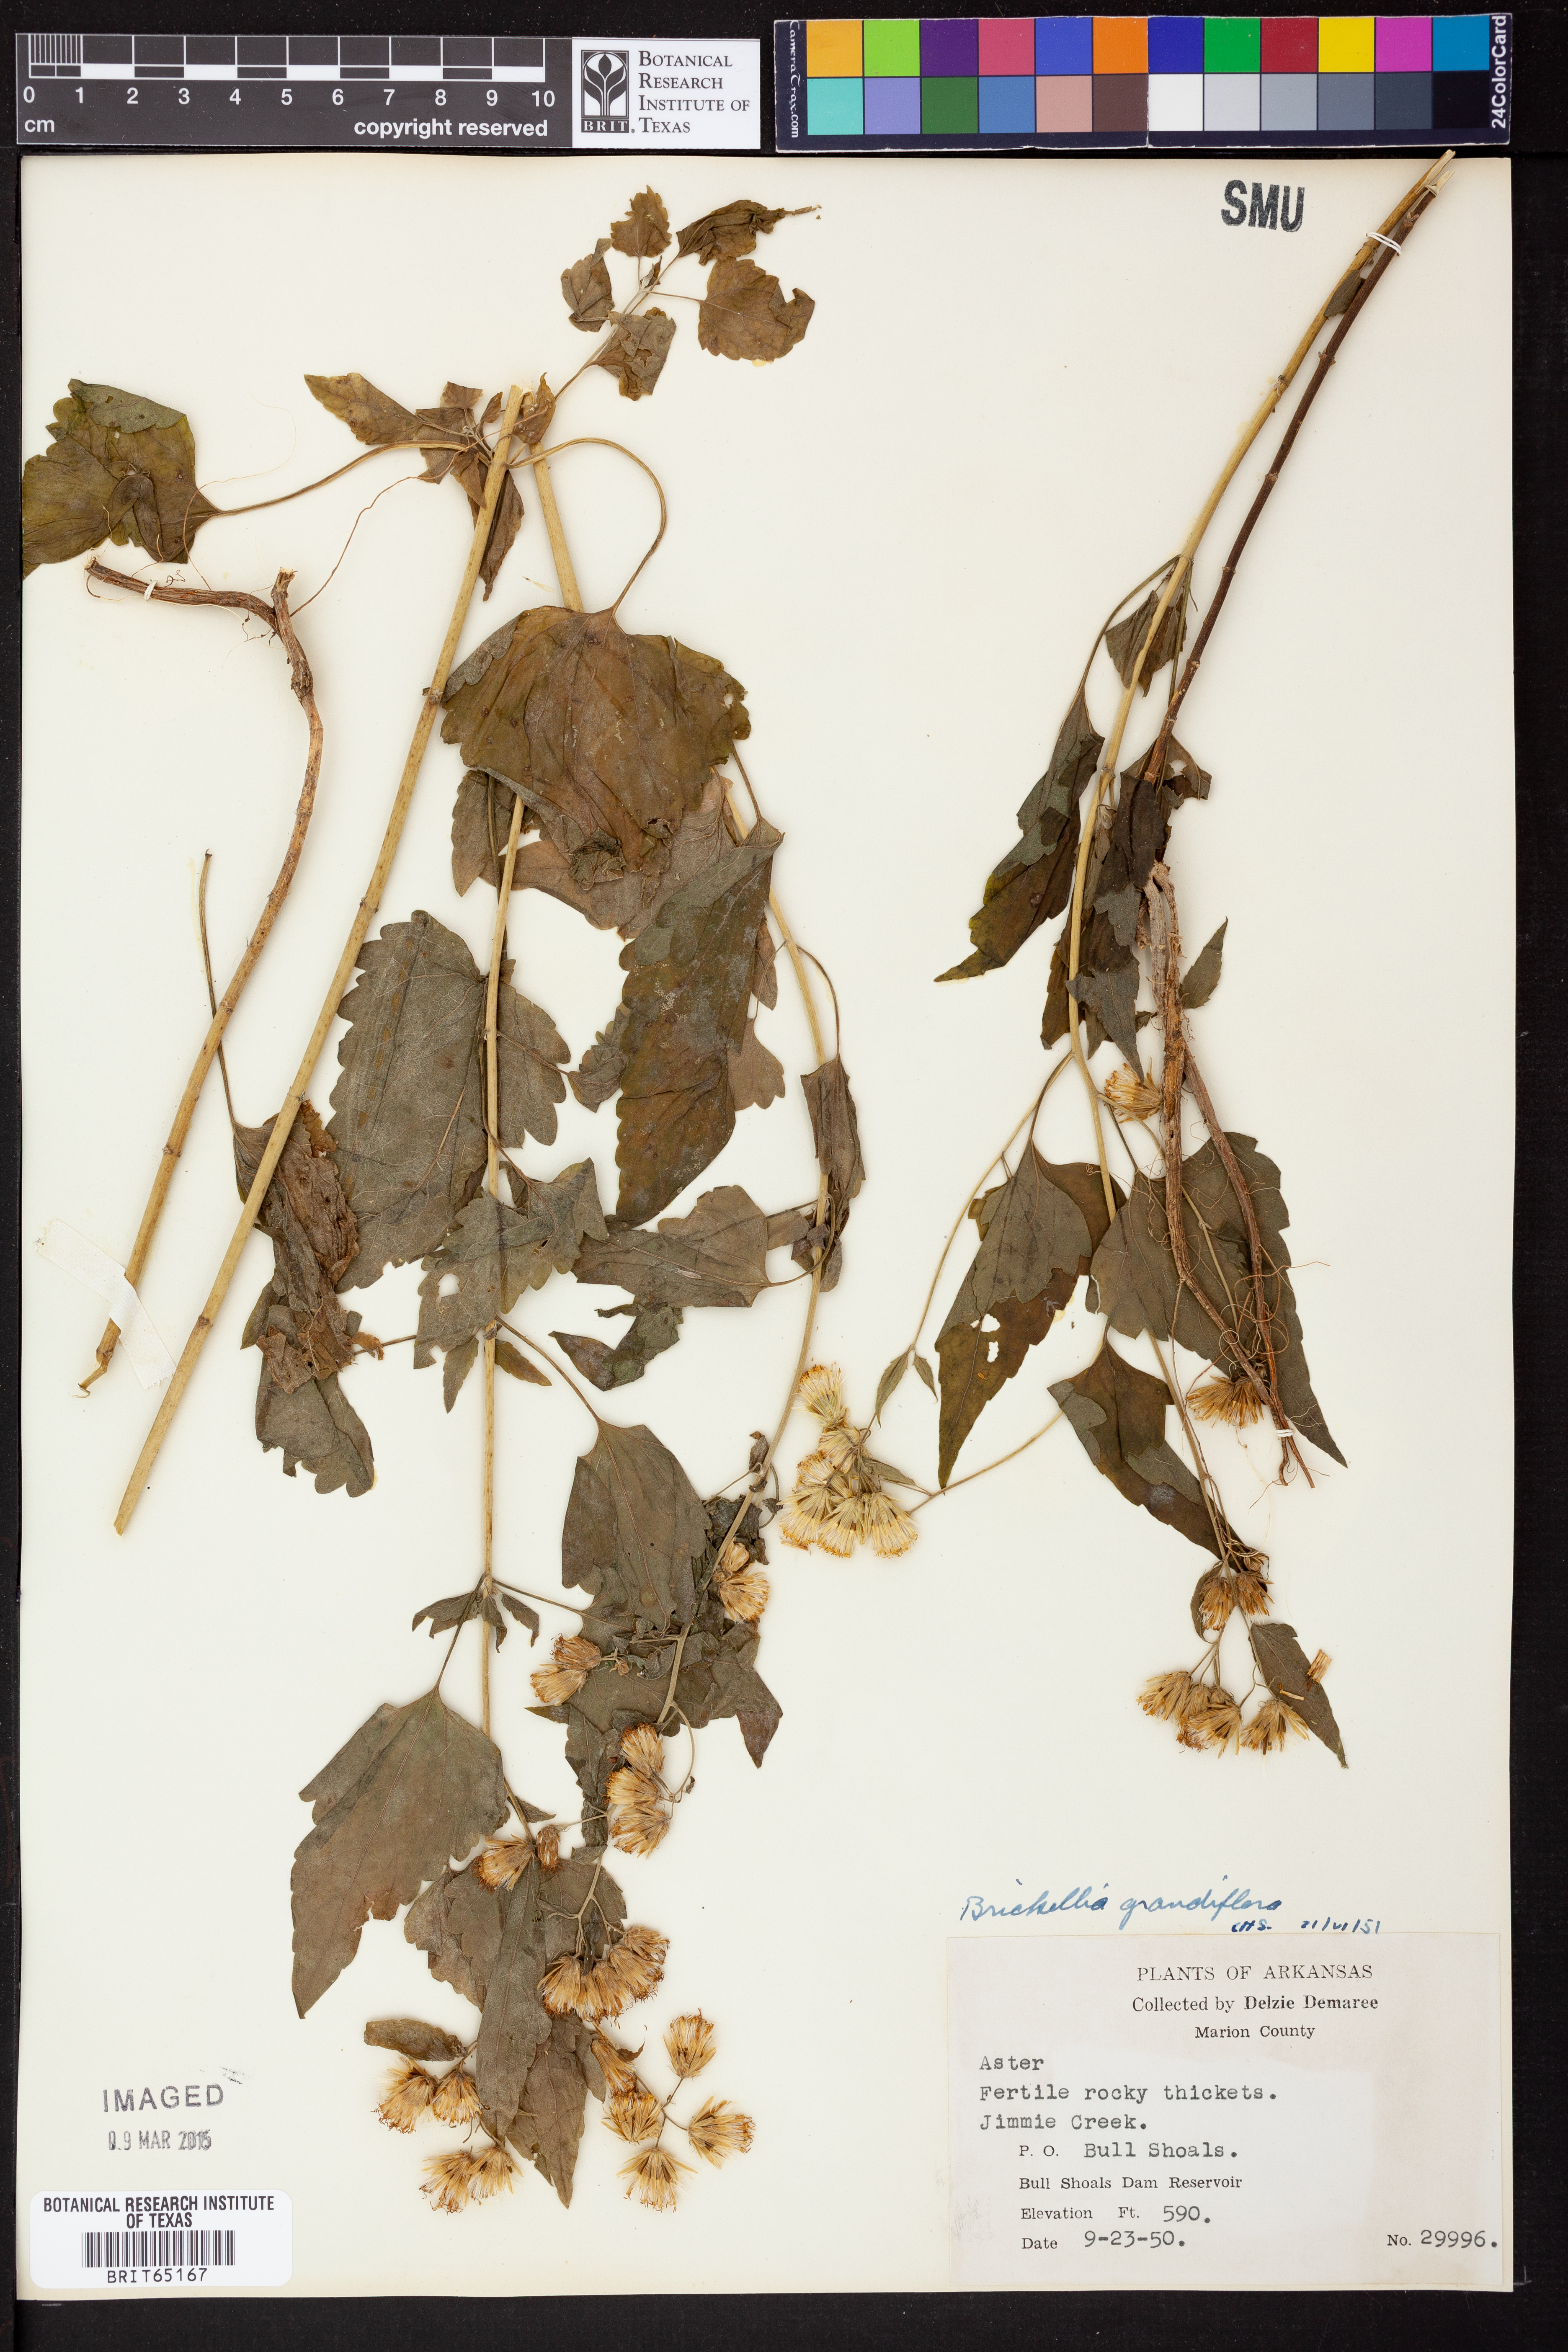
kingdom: Plantae
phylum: Tracheophyta
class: Magnoliopsida
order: Asterales
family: Asteraceae
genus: Brickellia
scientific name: Brickellia grandiflora
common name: Large-flowered brickellia
